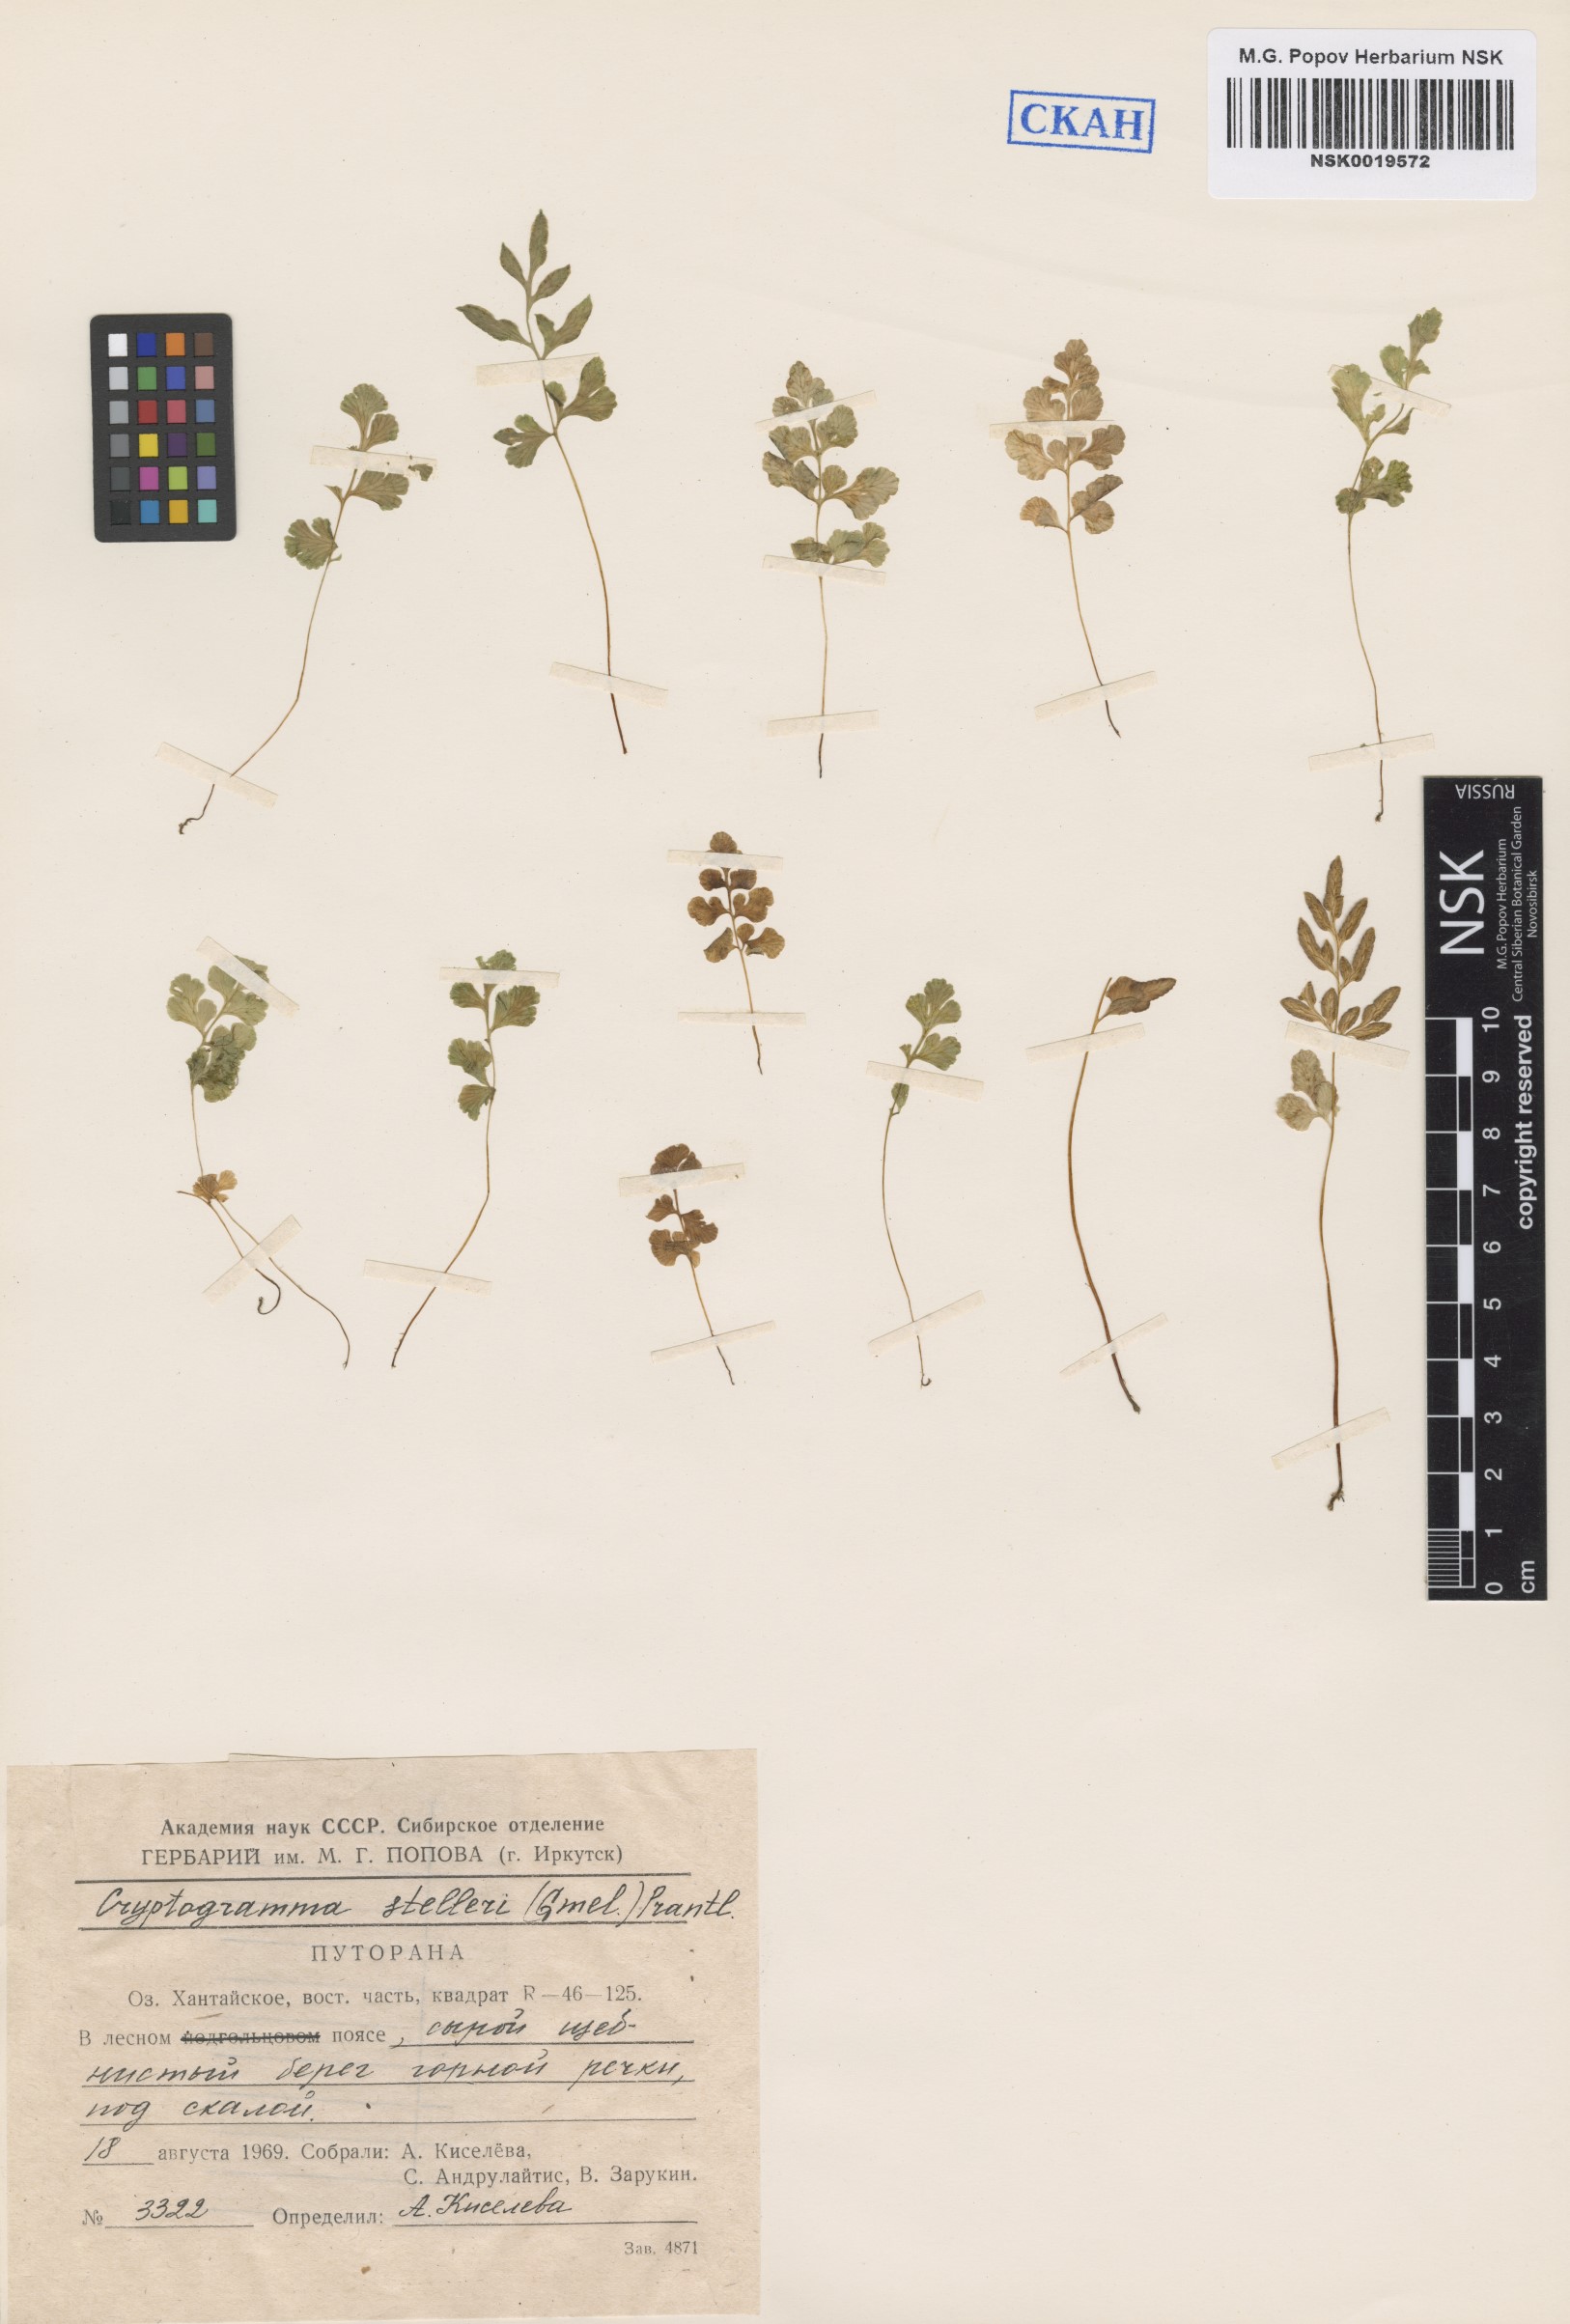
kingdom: Plantae
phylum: Tracheophyta
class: Polypodiopsida
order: Polypodiales
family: Pteridaceae
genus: Cryptogramma
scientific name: Cryptogramma stelleri
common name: Cliff-brake
